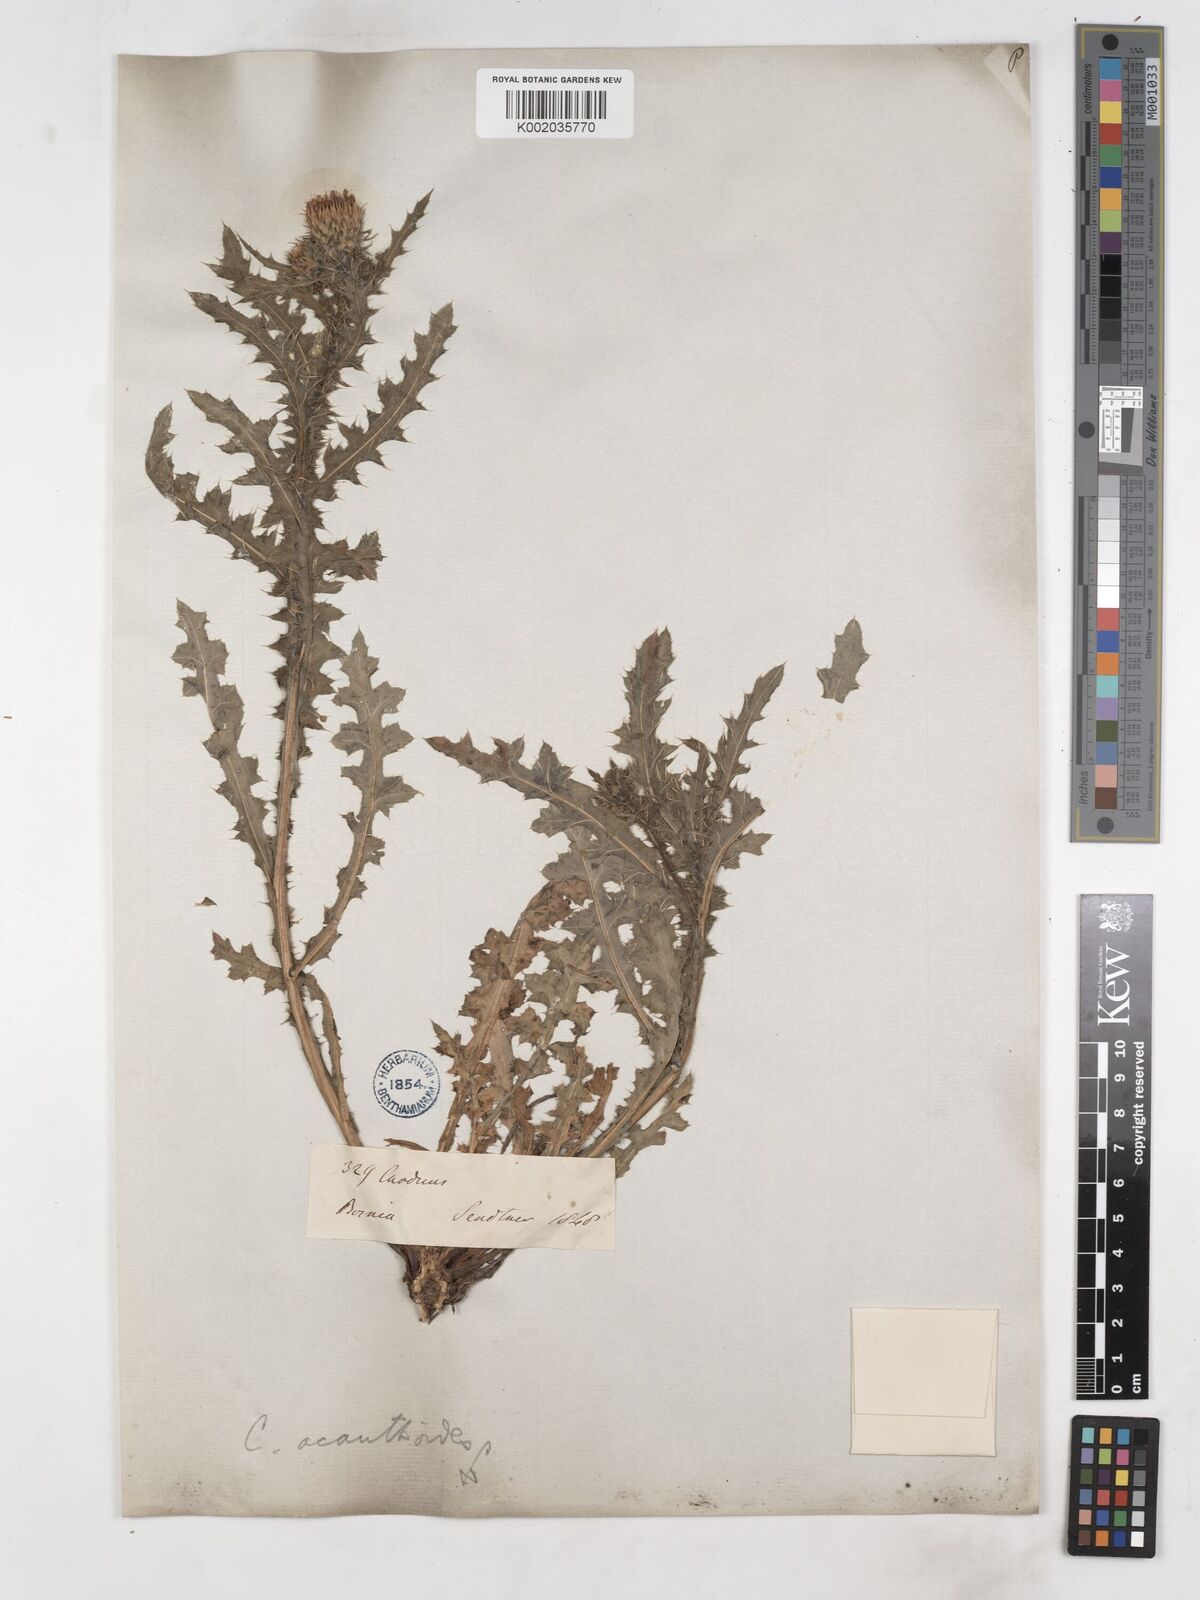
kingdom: Plantae
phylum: Tracheophyta
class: Magnoliopsida
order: Asterales
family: Asteraceae
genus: Carduus
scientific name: Carduus acanthoides
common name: Plumeless thistle
